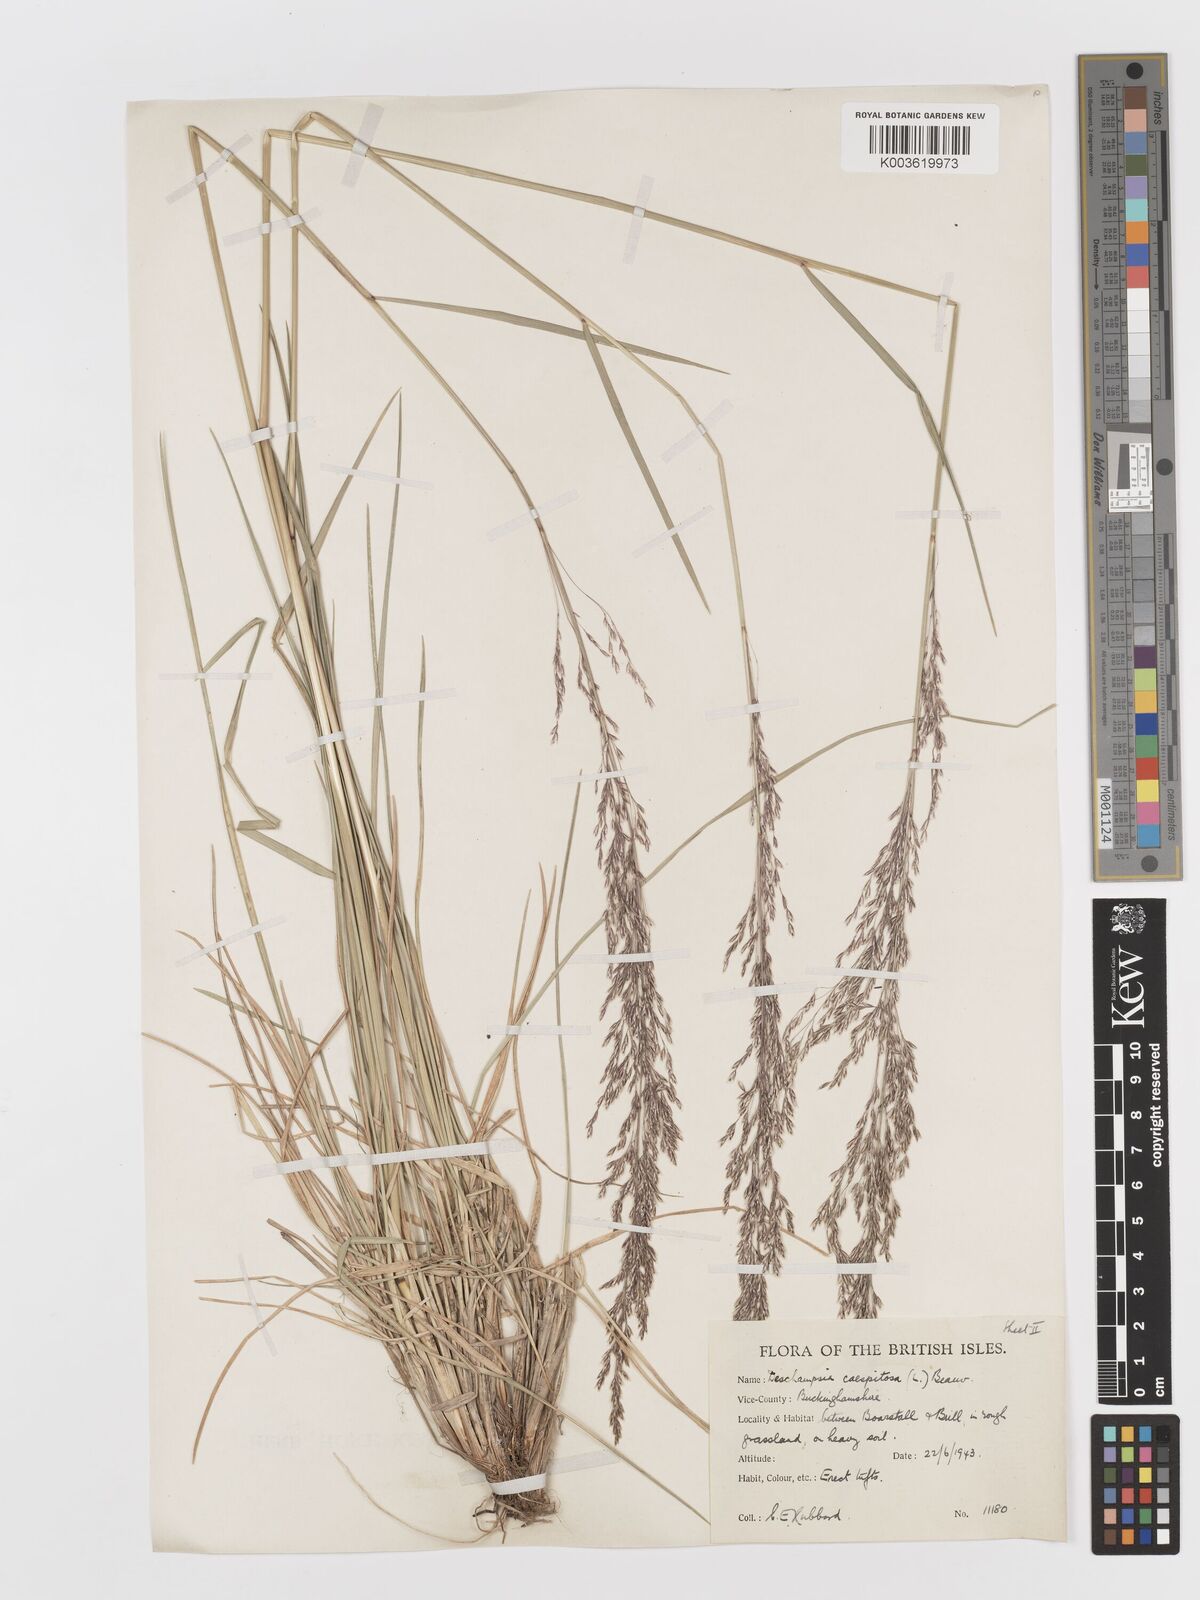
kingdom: Plantae
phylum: Tracheophyta
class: Liliopsida
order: Poales
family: Poaceae
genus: Deschampsia
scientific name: Deschampsia cespitosa
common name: Tufted hair-grass
